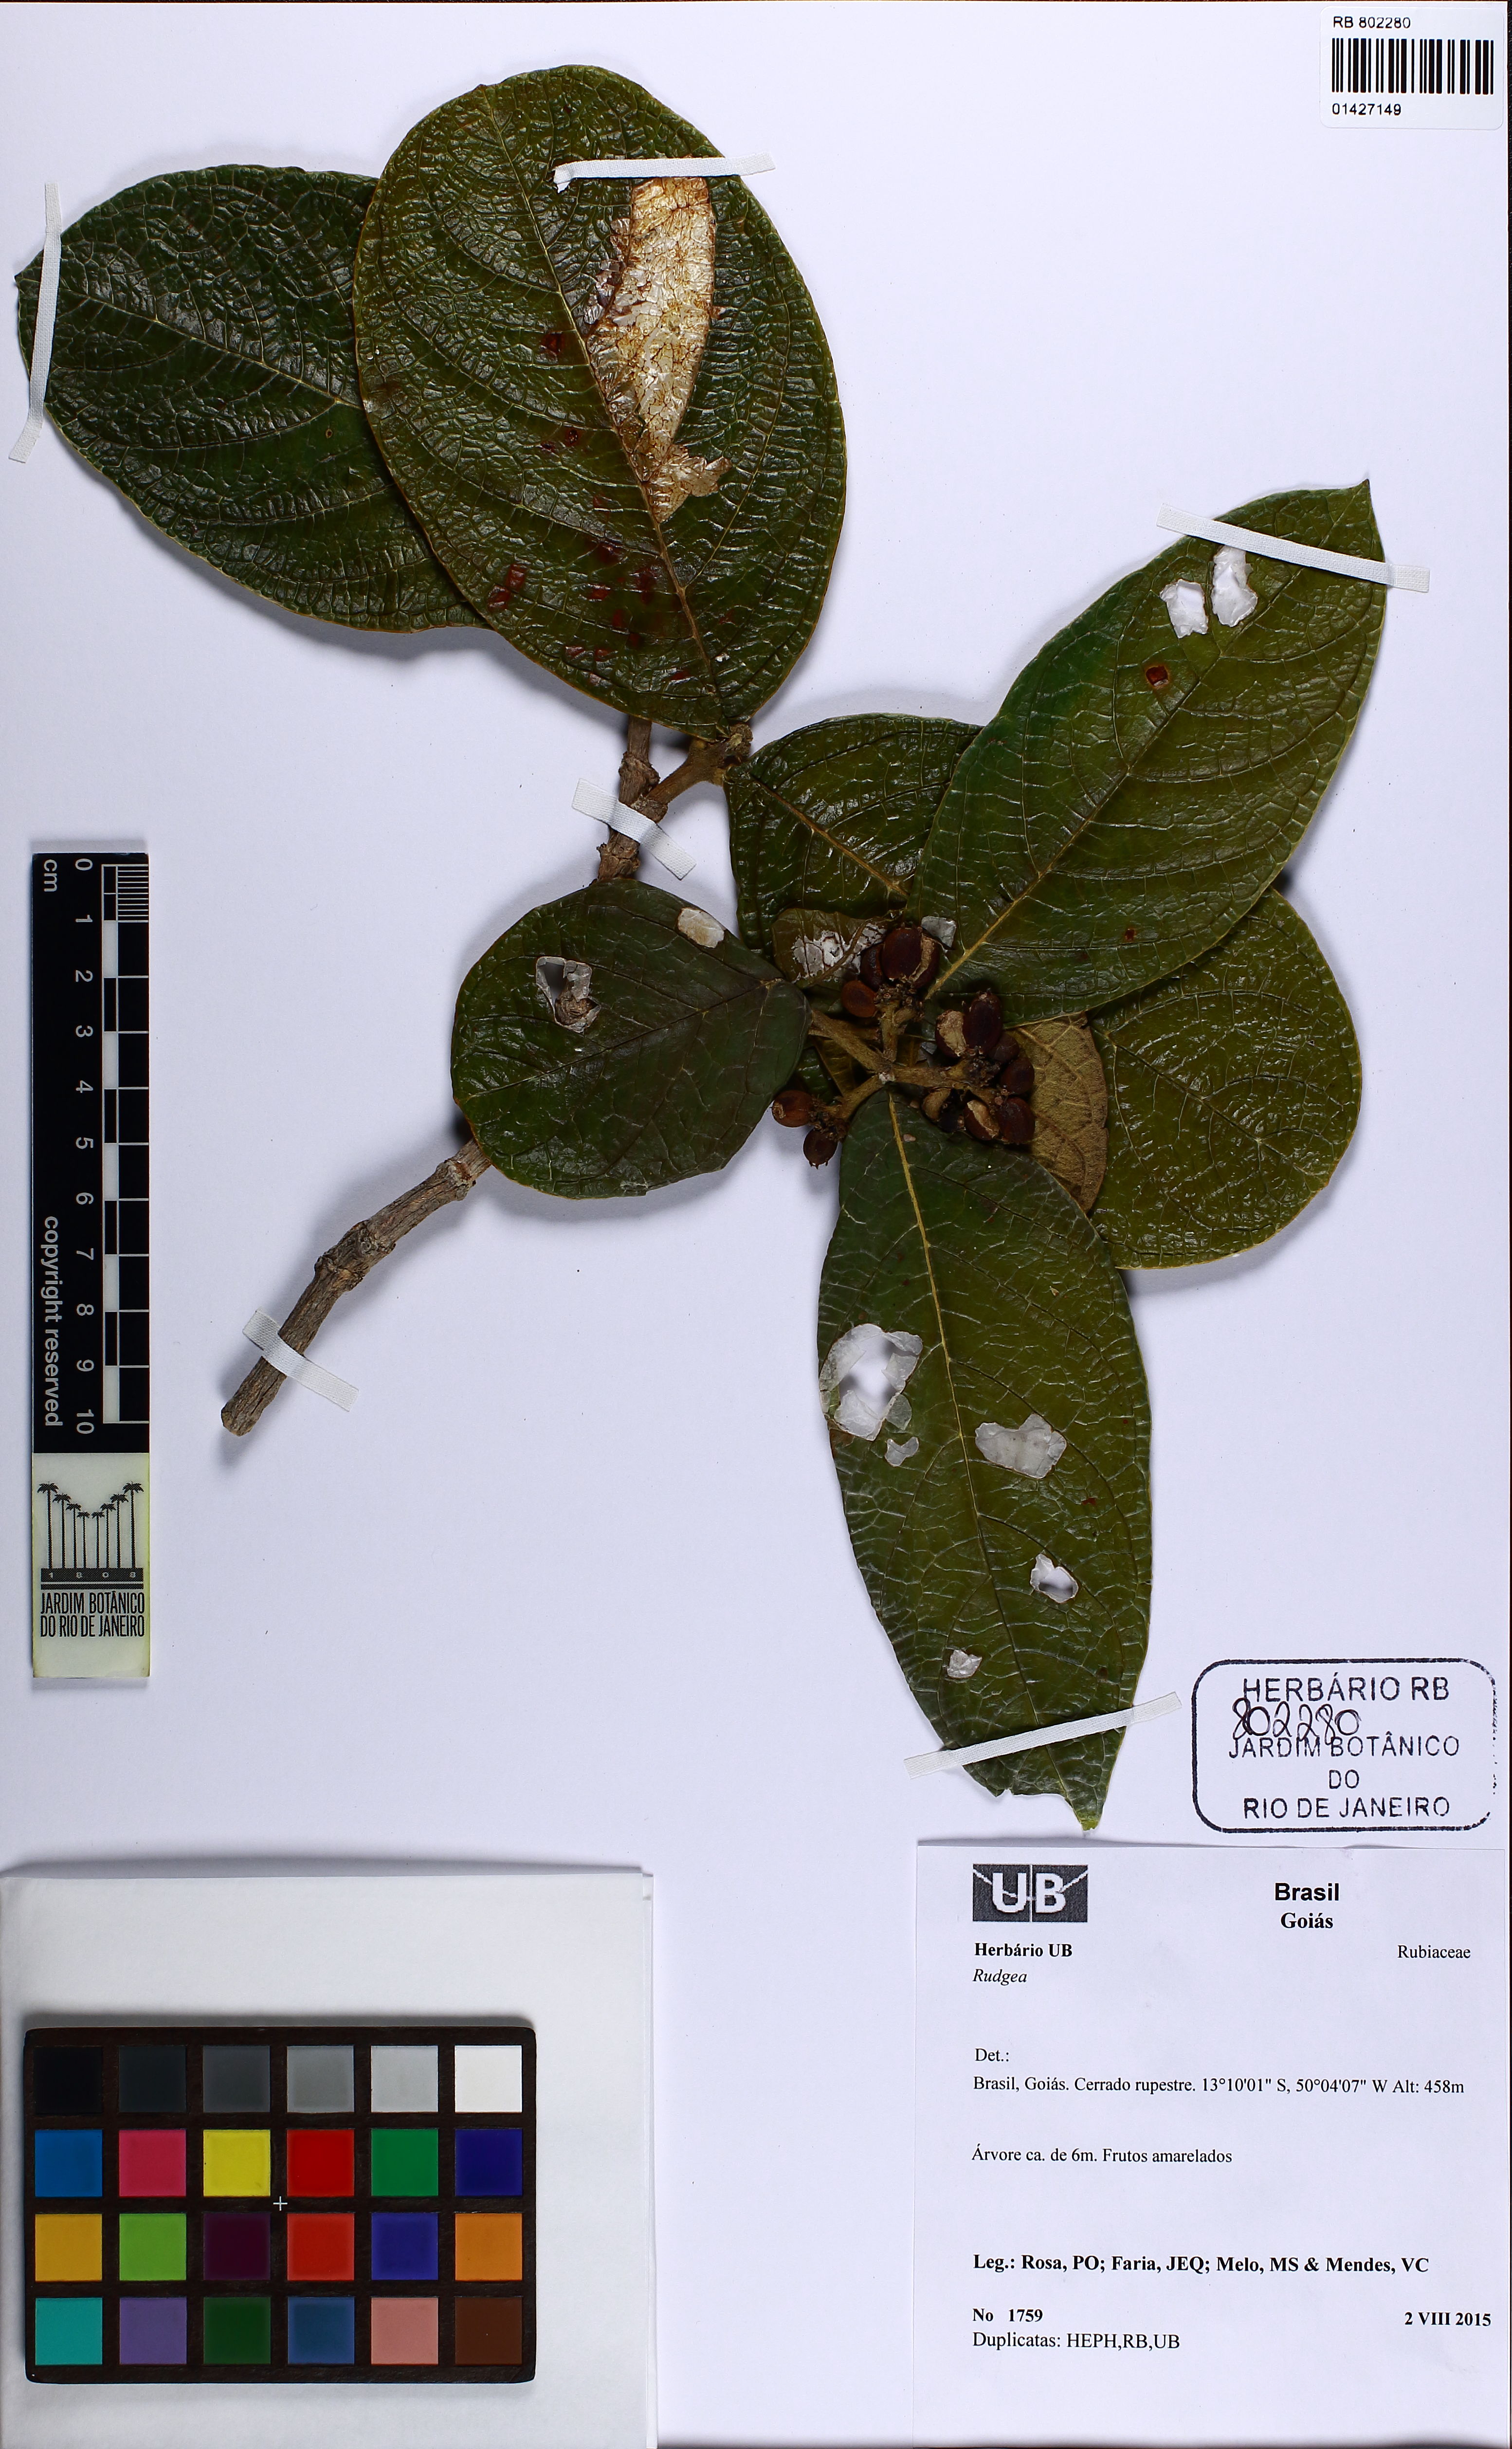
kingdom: Plantae
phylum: Tracheophyta
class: Magnoliopsida
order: Gentianales
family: Rubiaceae
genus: Rudgea
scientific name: Rudgea viburnoides
